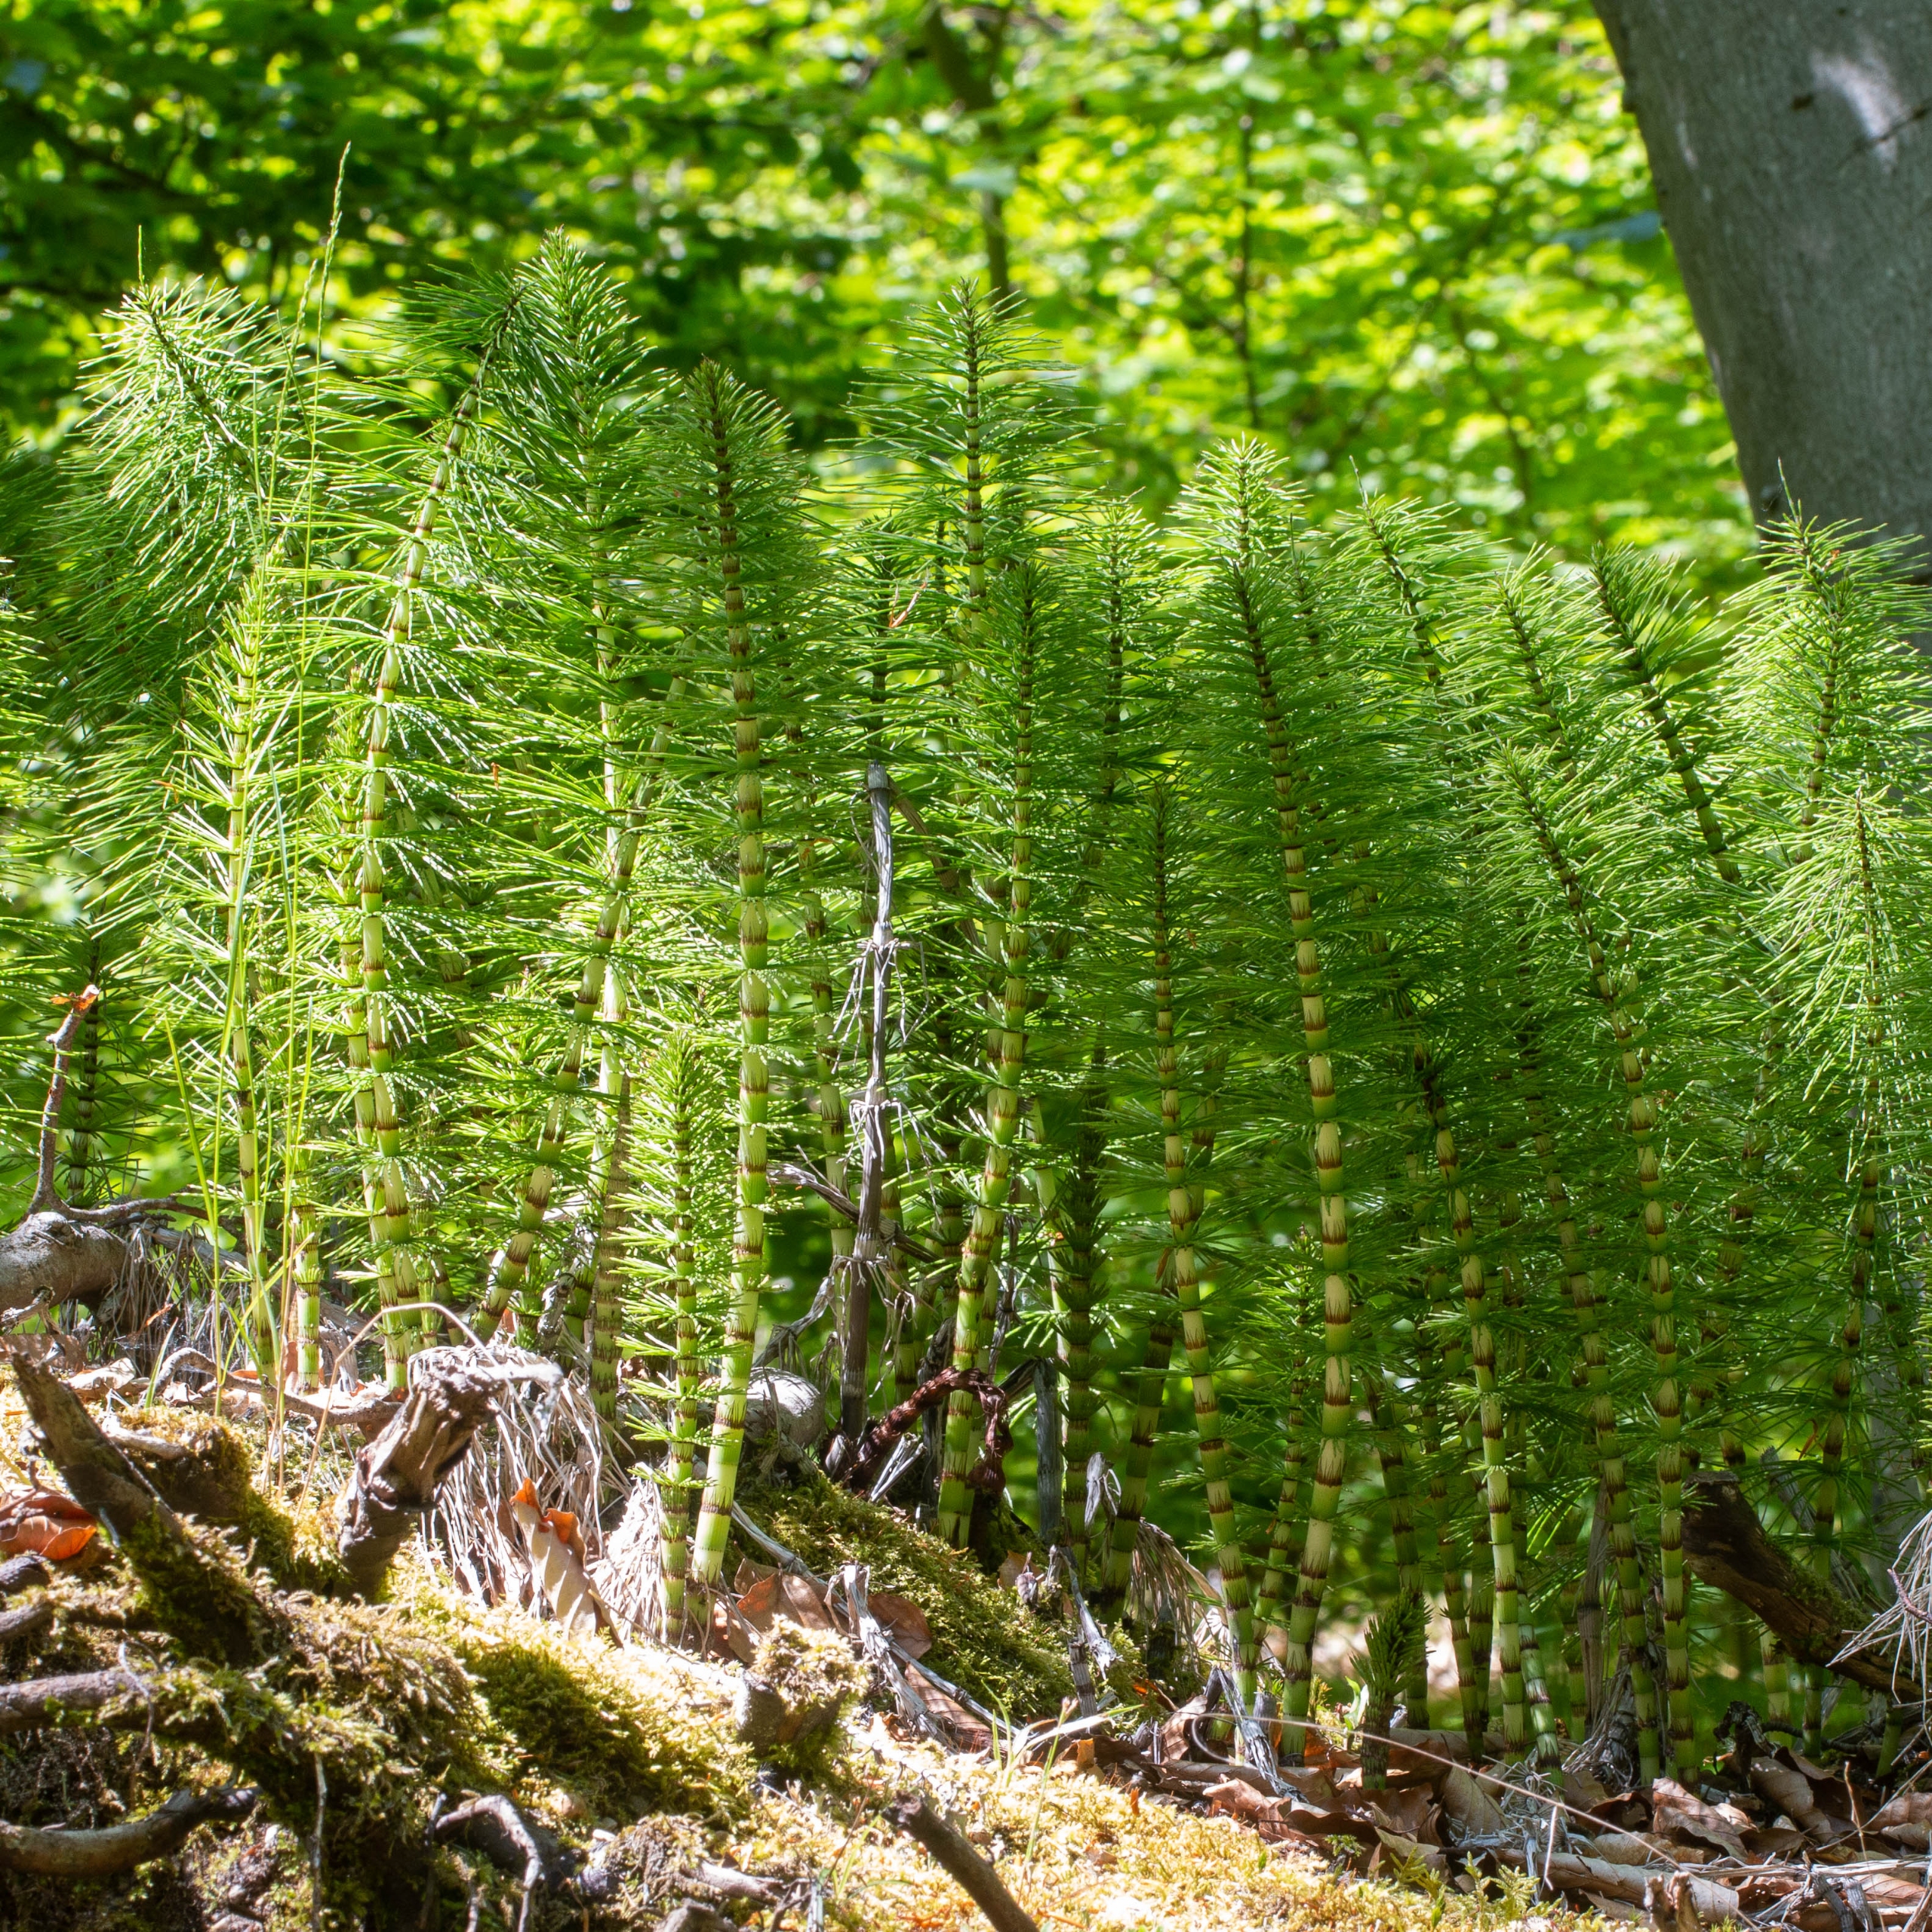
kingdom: Plantae
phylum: Tracheophyta
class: Polypodiopsida
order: Equisetales
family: Equisetaceae
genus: Equisetum
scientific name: Equisetum telmateia
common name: Elfenbens-padderok
